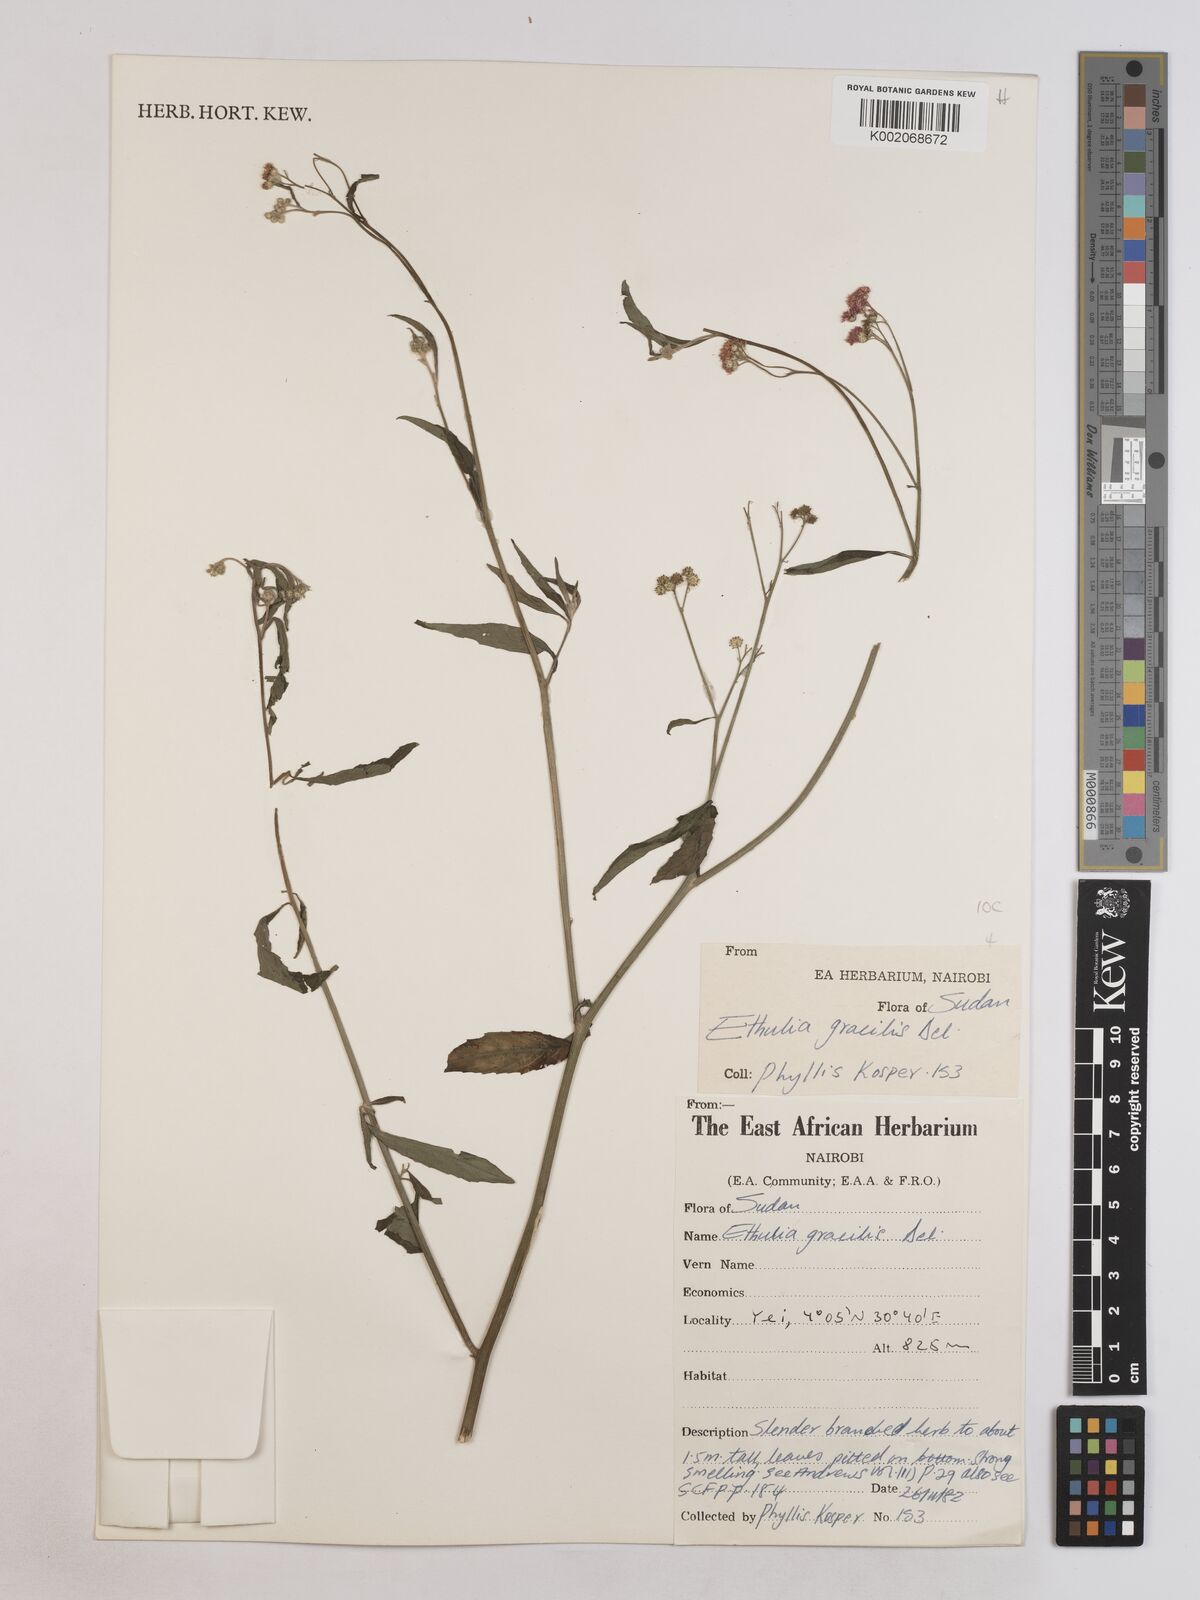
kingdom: Plantae
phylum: Tracheophyta
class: Magnoliopsida
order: Asterales
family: Asteraceae
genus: Ethulia
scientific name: Ethulia gracilis
